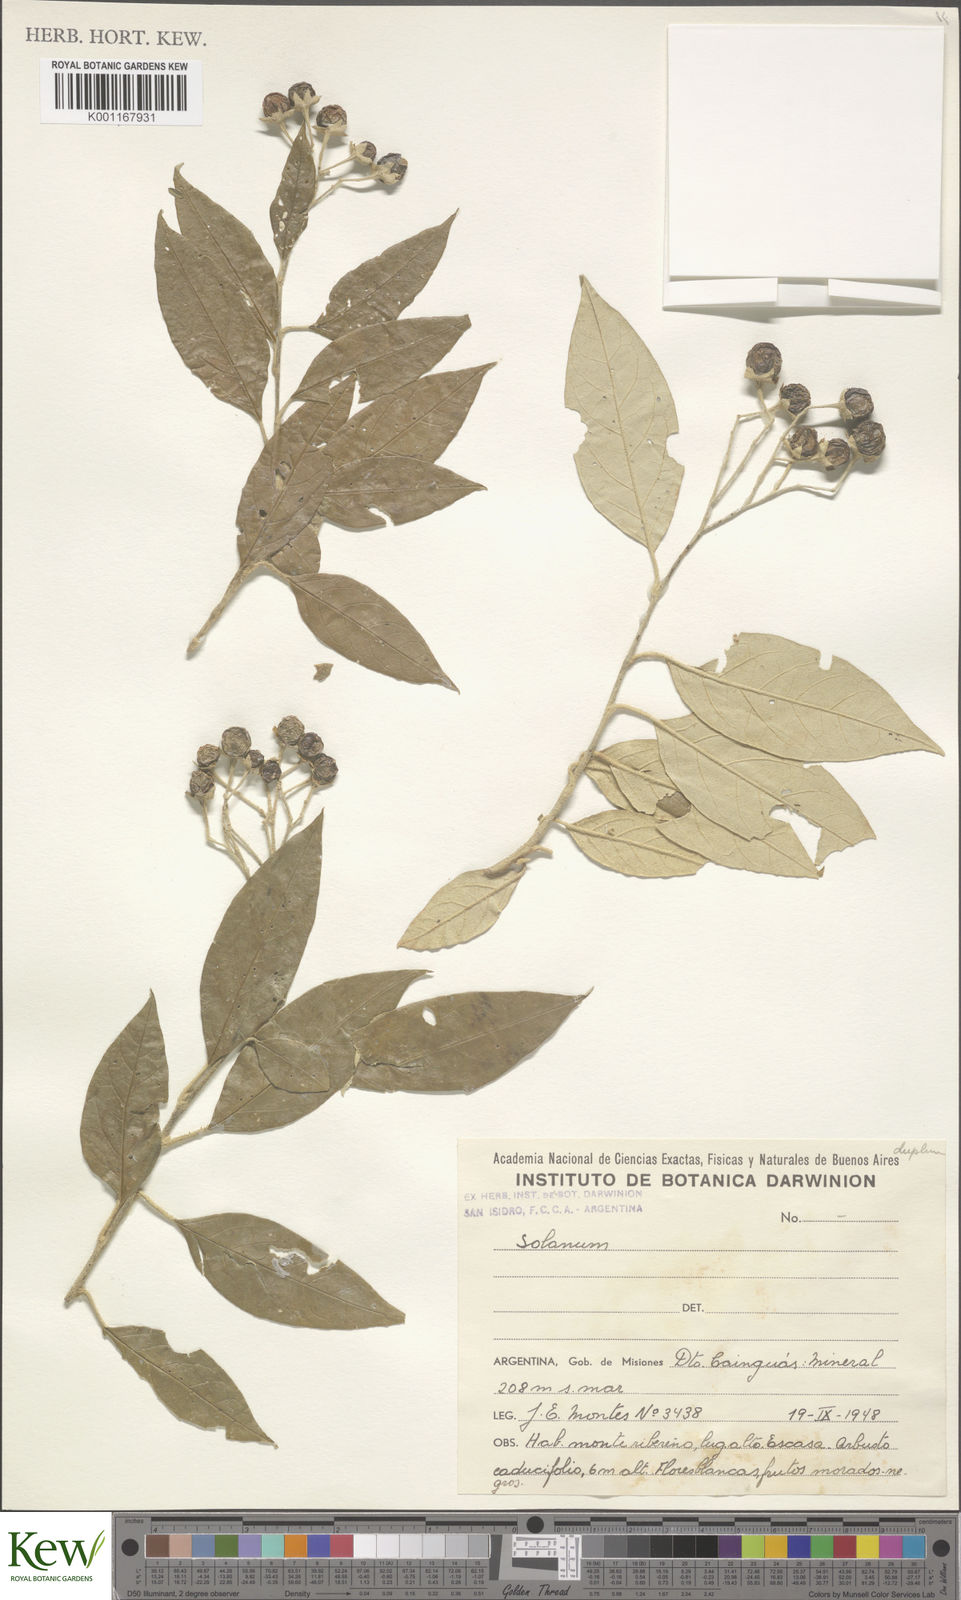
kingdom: Plantae
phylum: Tracheophyta
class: Magnoliopsida
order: Solanales
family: Solanaceae
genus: Solanum
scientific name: Solanum
